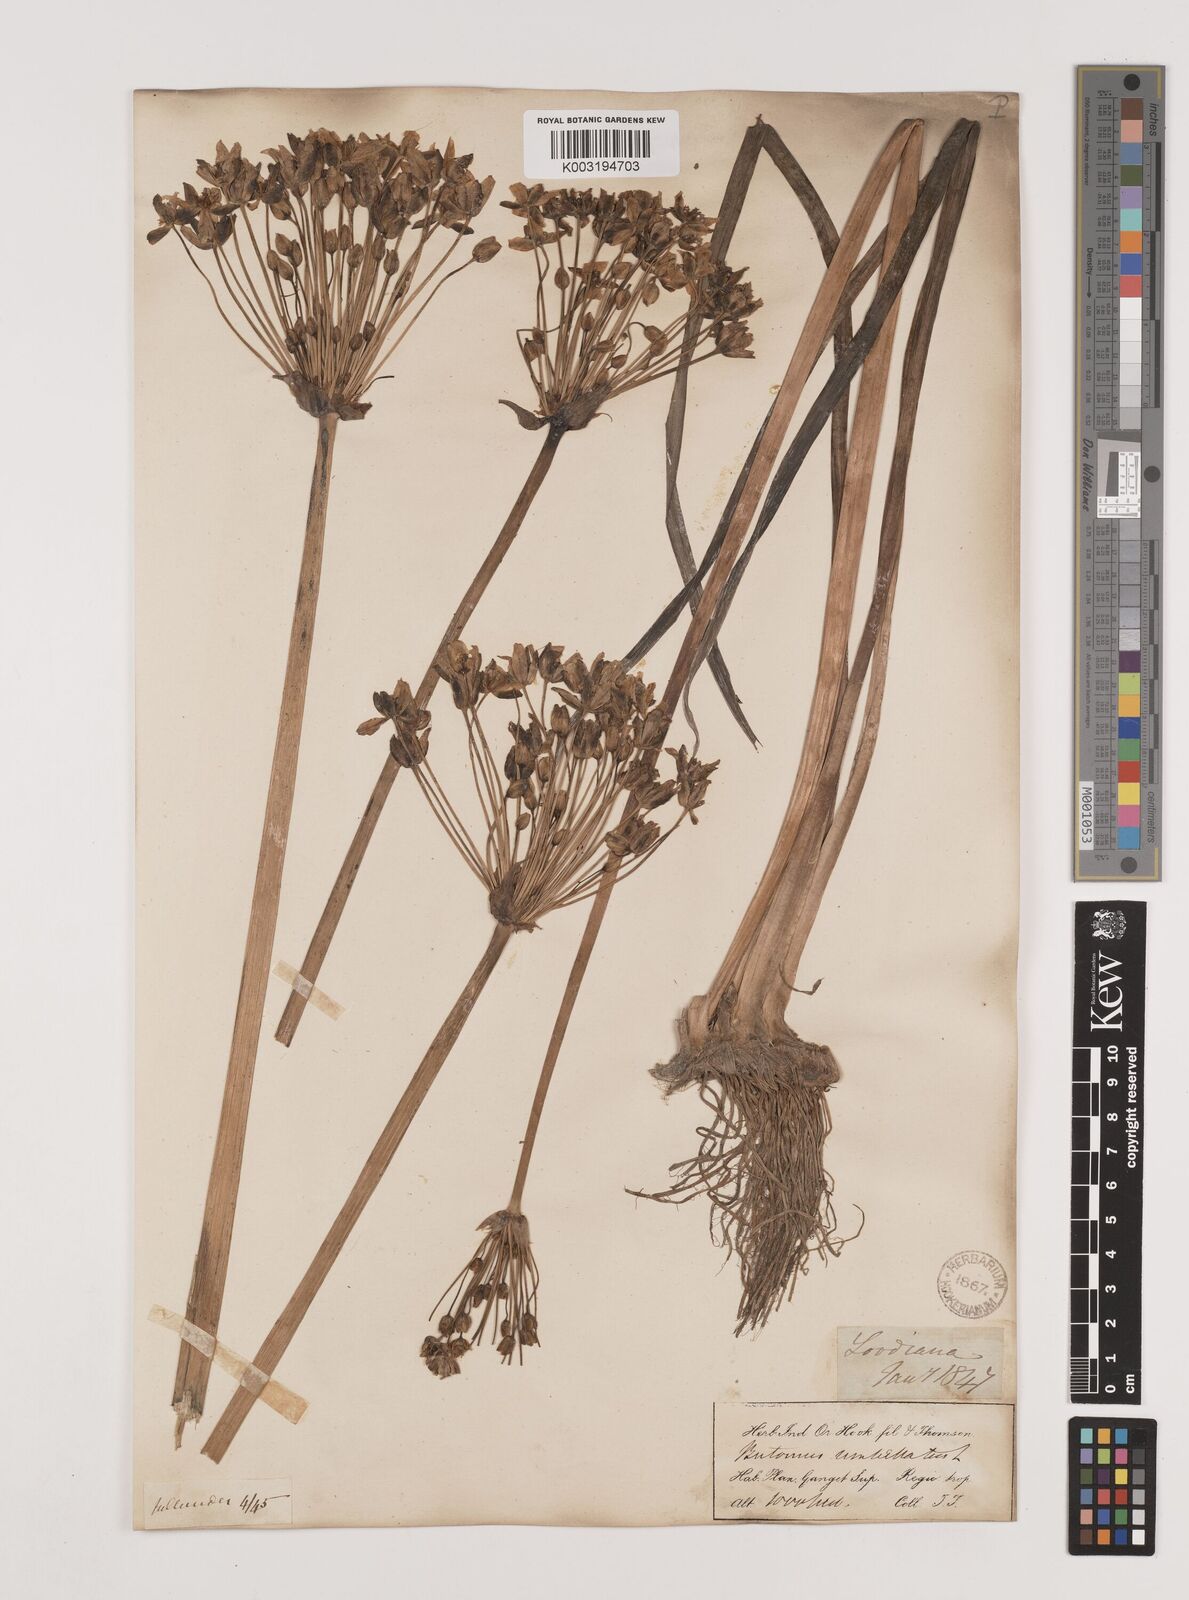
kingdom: Plantae
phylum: Tracheophyta
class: Liliopsida
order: Alismatales
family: Butomaceae
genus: Butomus
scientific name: Butomus umbellatus
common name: Flowering-rush
